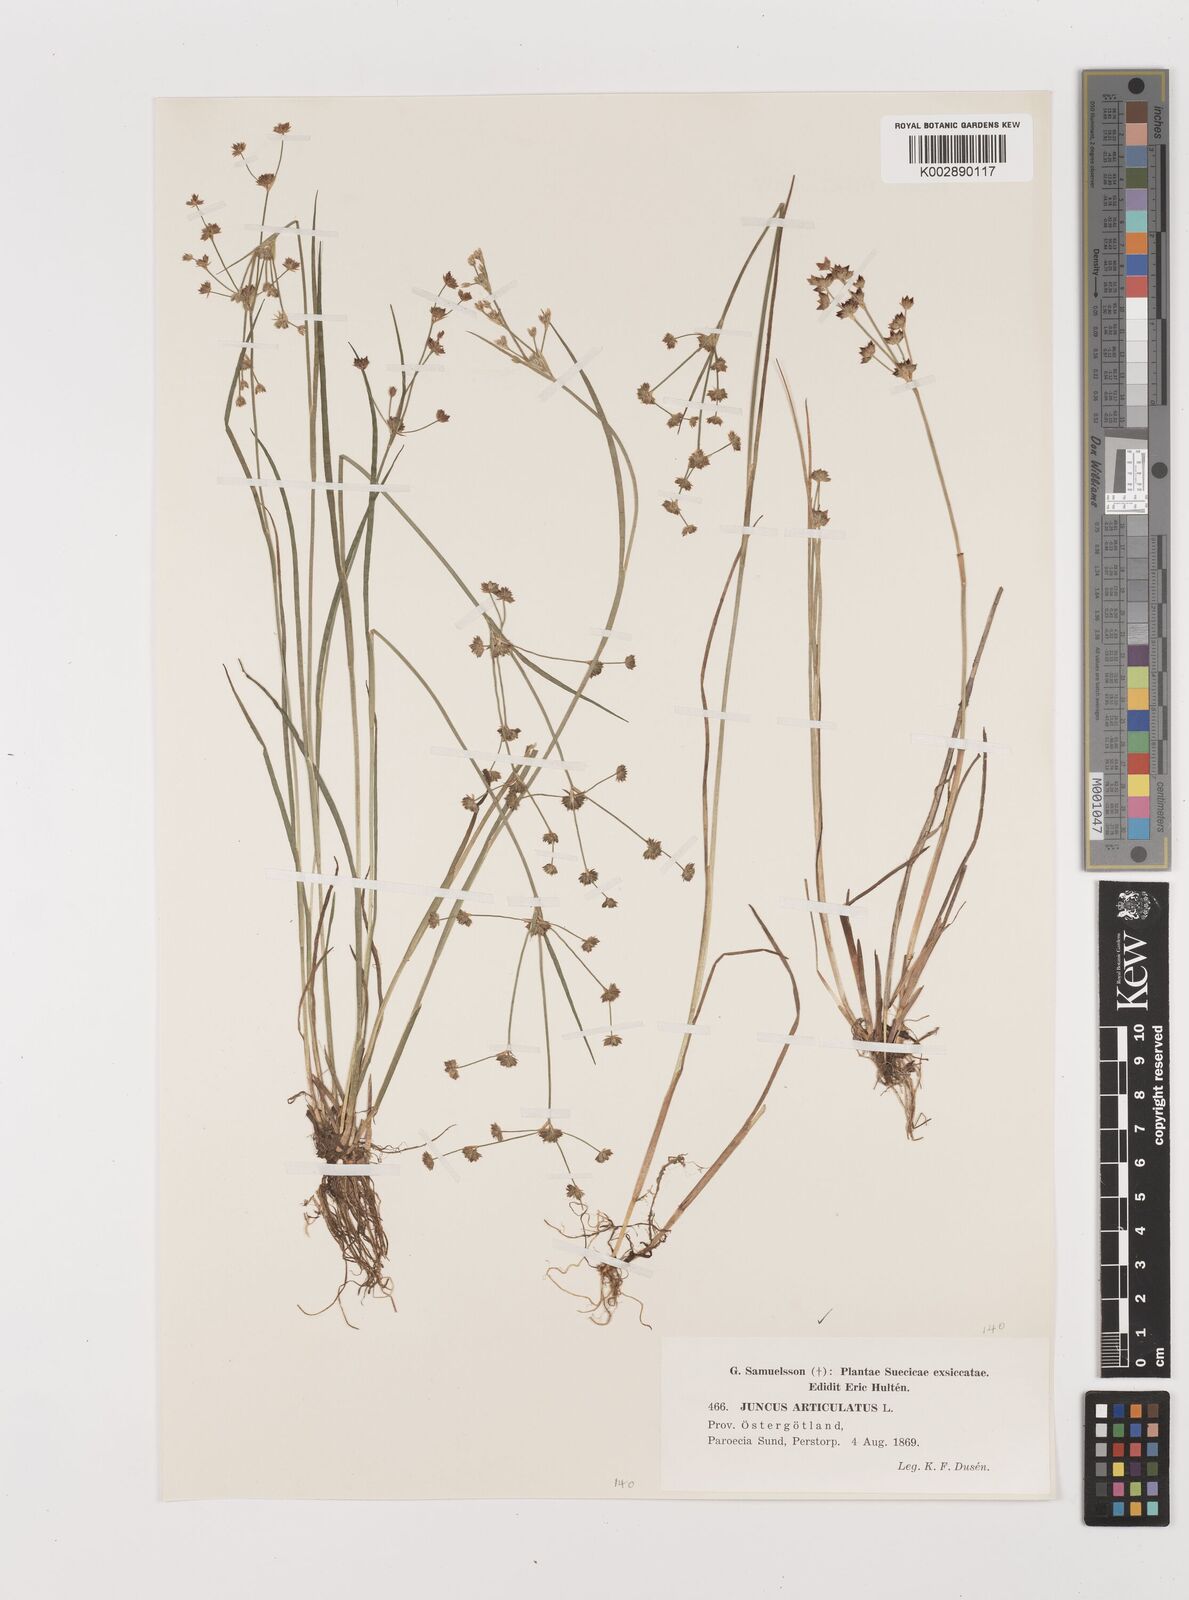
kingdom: Plantae
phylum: Tracheophyta
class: Liliopsida
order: Poales
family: Juncaceae
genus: Juncus
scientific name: Juncus articulatus
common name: Jointed rush
